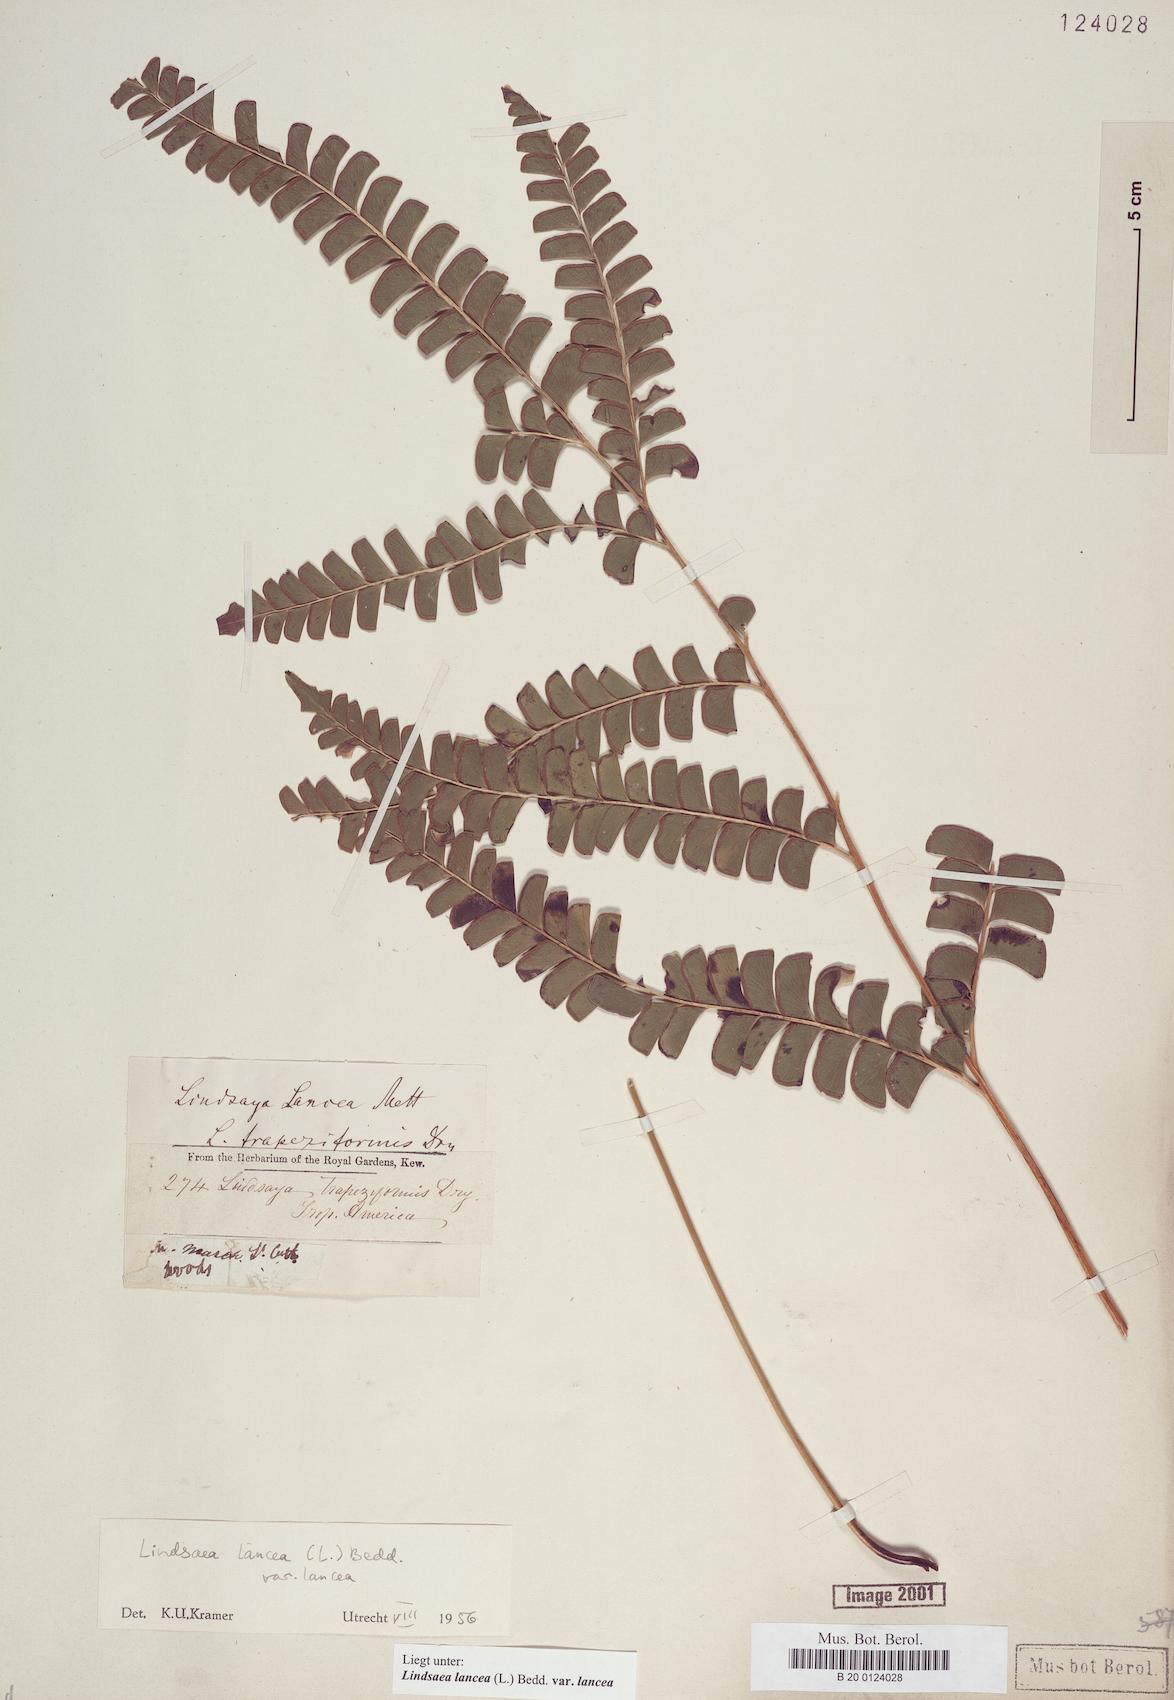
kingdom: Plantae
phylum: Tracheophyta
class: Polypodiopsida
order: Polypodiales
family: Lindsaeaceae
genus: Lindsaea
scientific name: Lindsaea lancea
